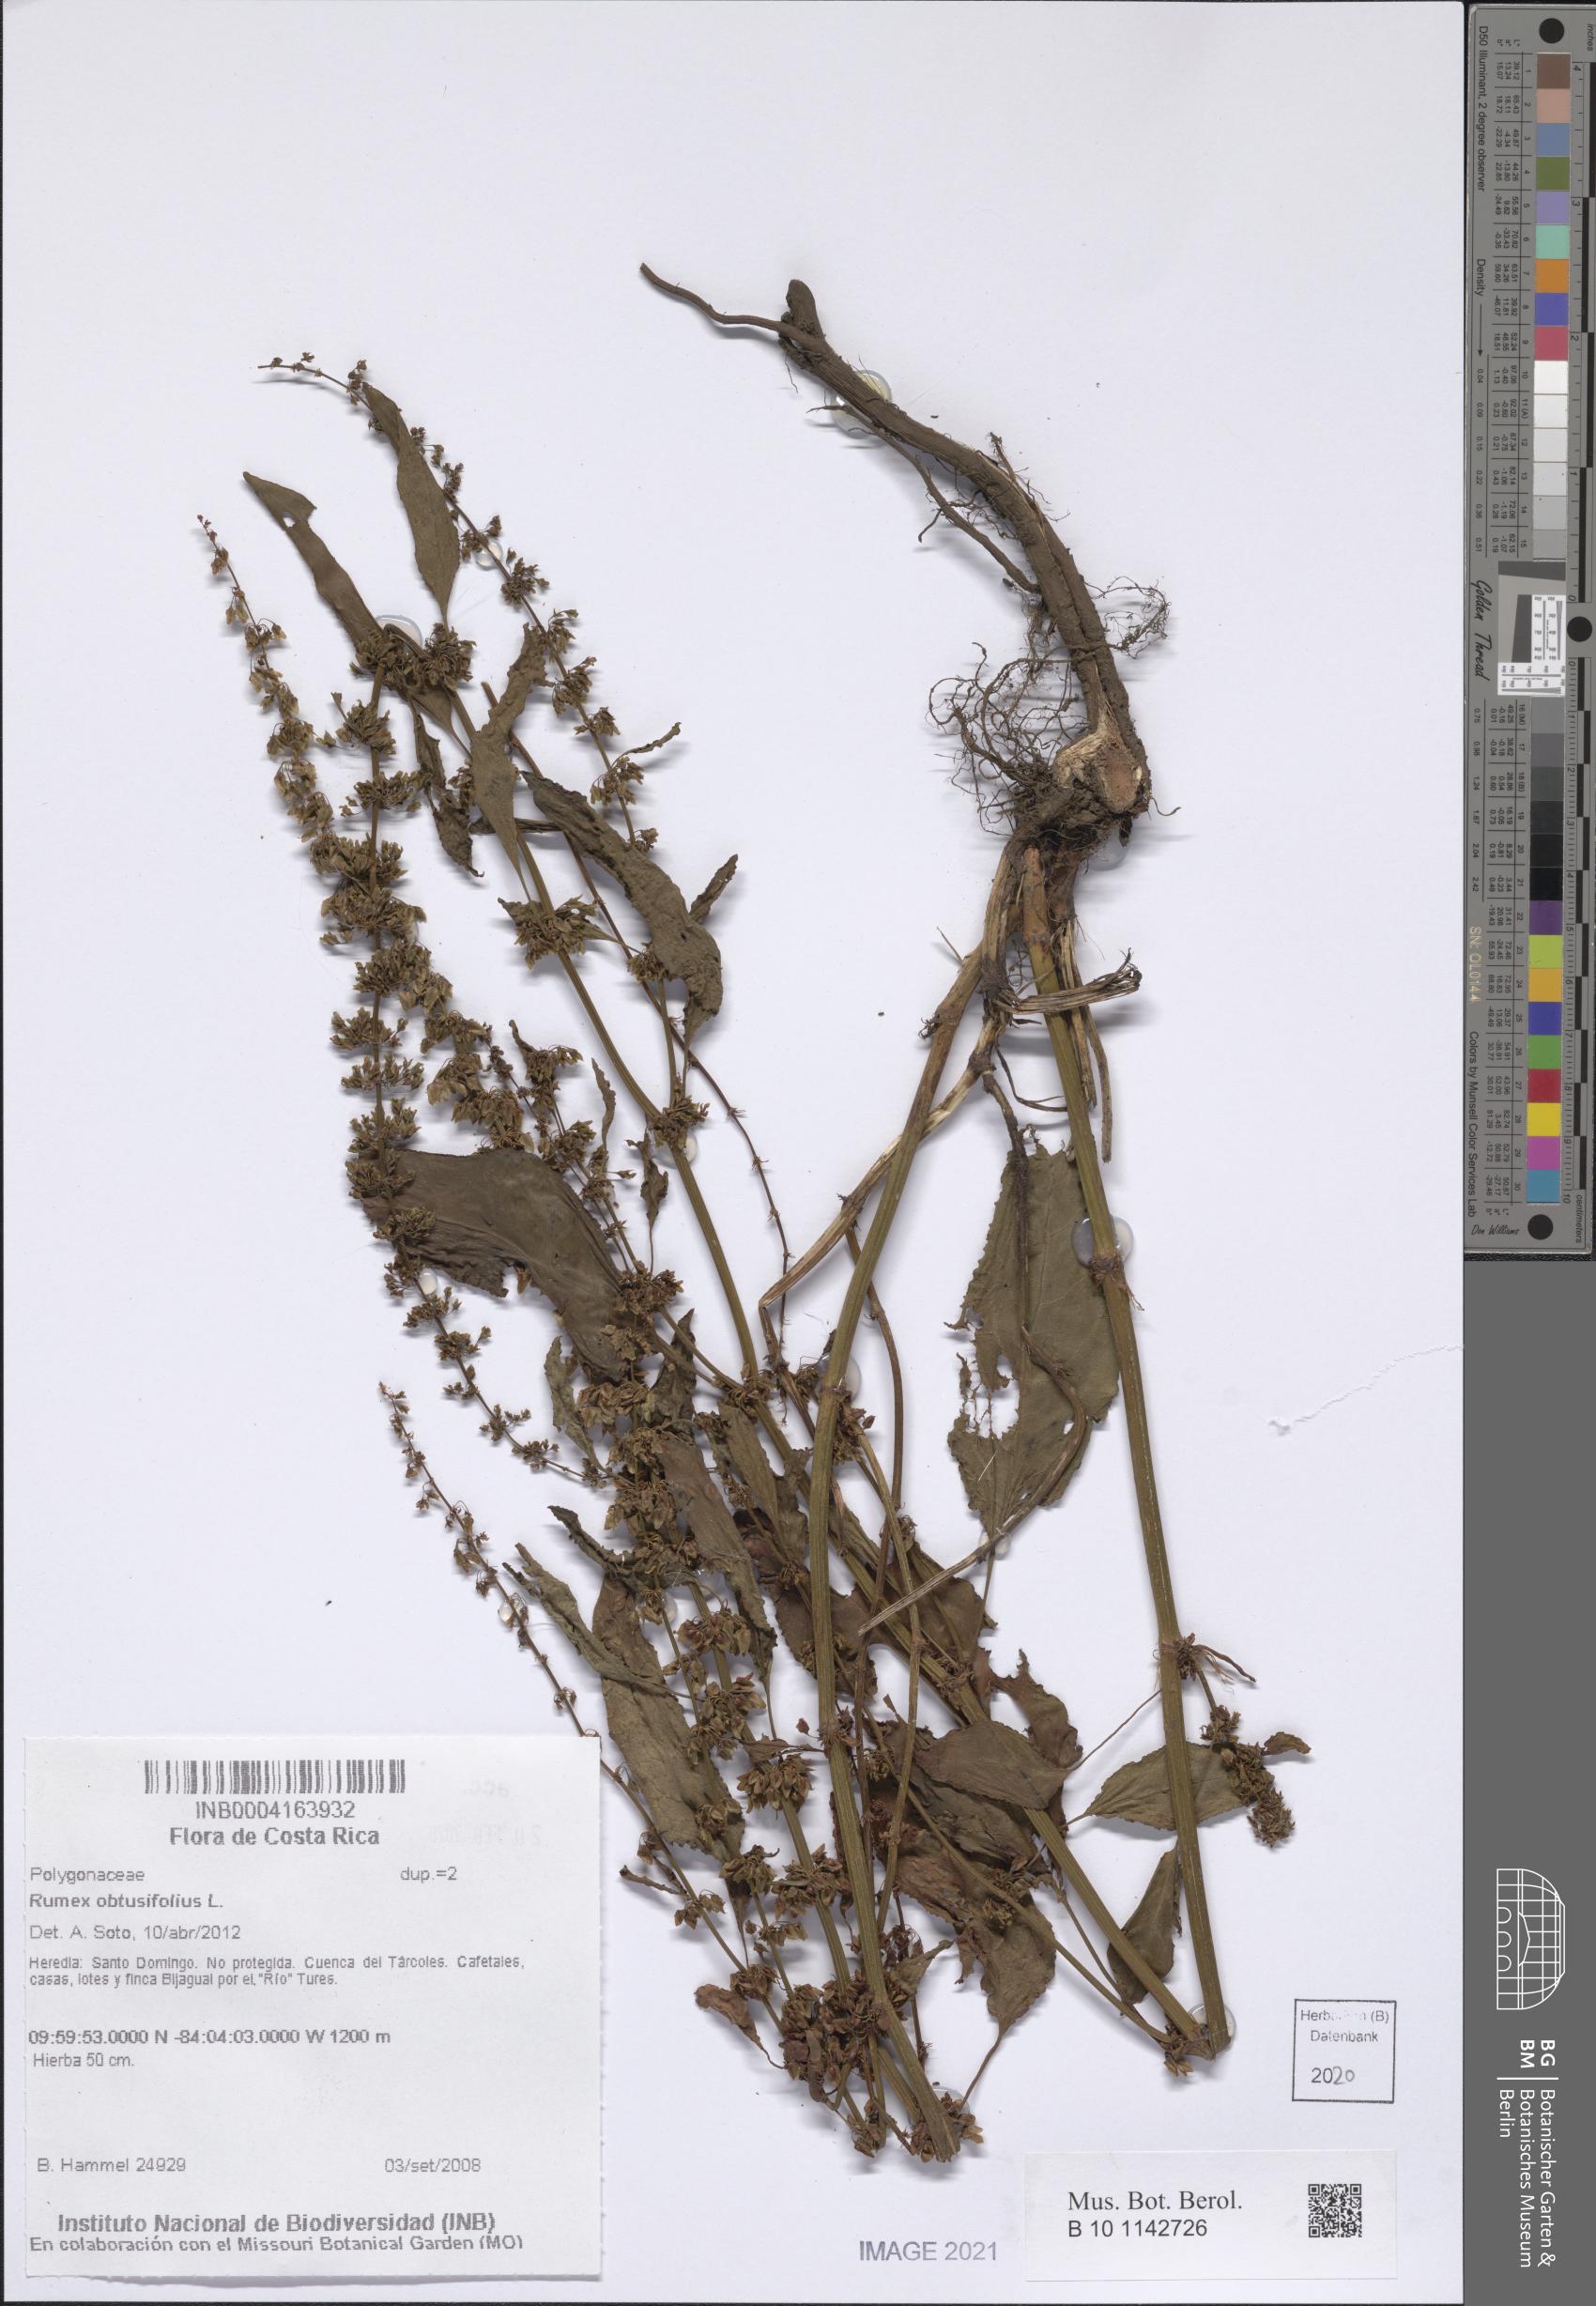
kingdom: Plantae
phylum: Tracheophyta
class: Magnoliopsida
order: Caryophyllales
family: Polygonaceae
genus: Rumex
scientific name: Rumex obtusifolius
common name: Bitter dock
